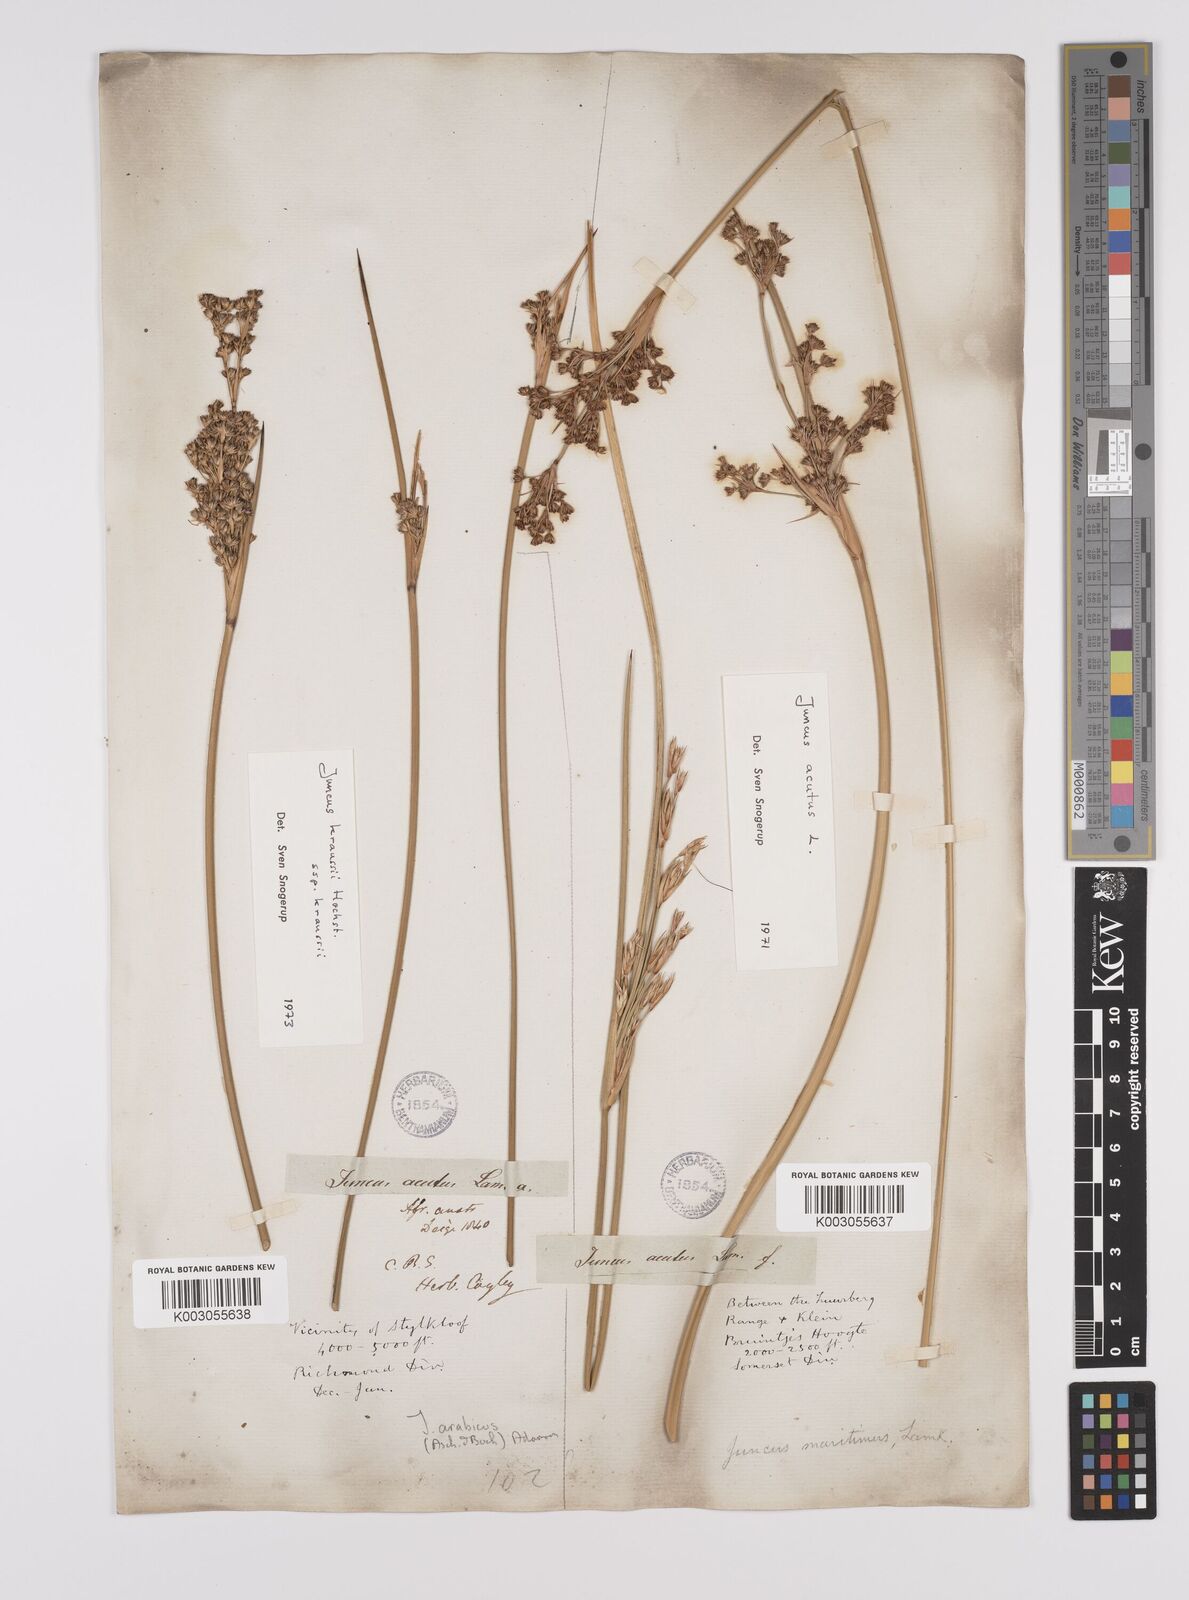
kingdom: Plantae
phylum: Tracheophyta
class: Liliopsida
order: Poales
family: Juncaceae
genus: Juncus
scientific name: Juncus acutus
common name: Sharp rush
